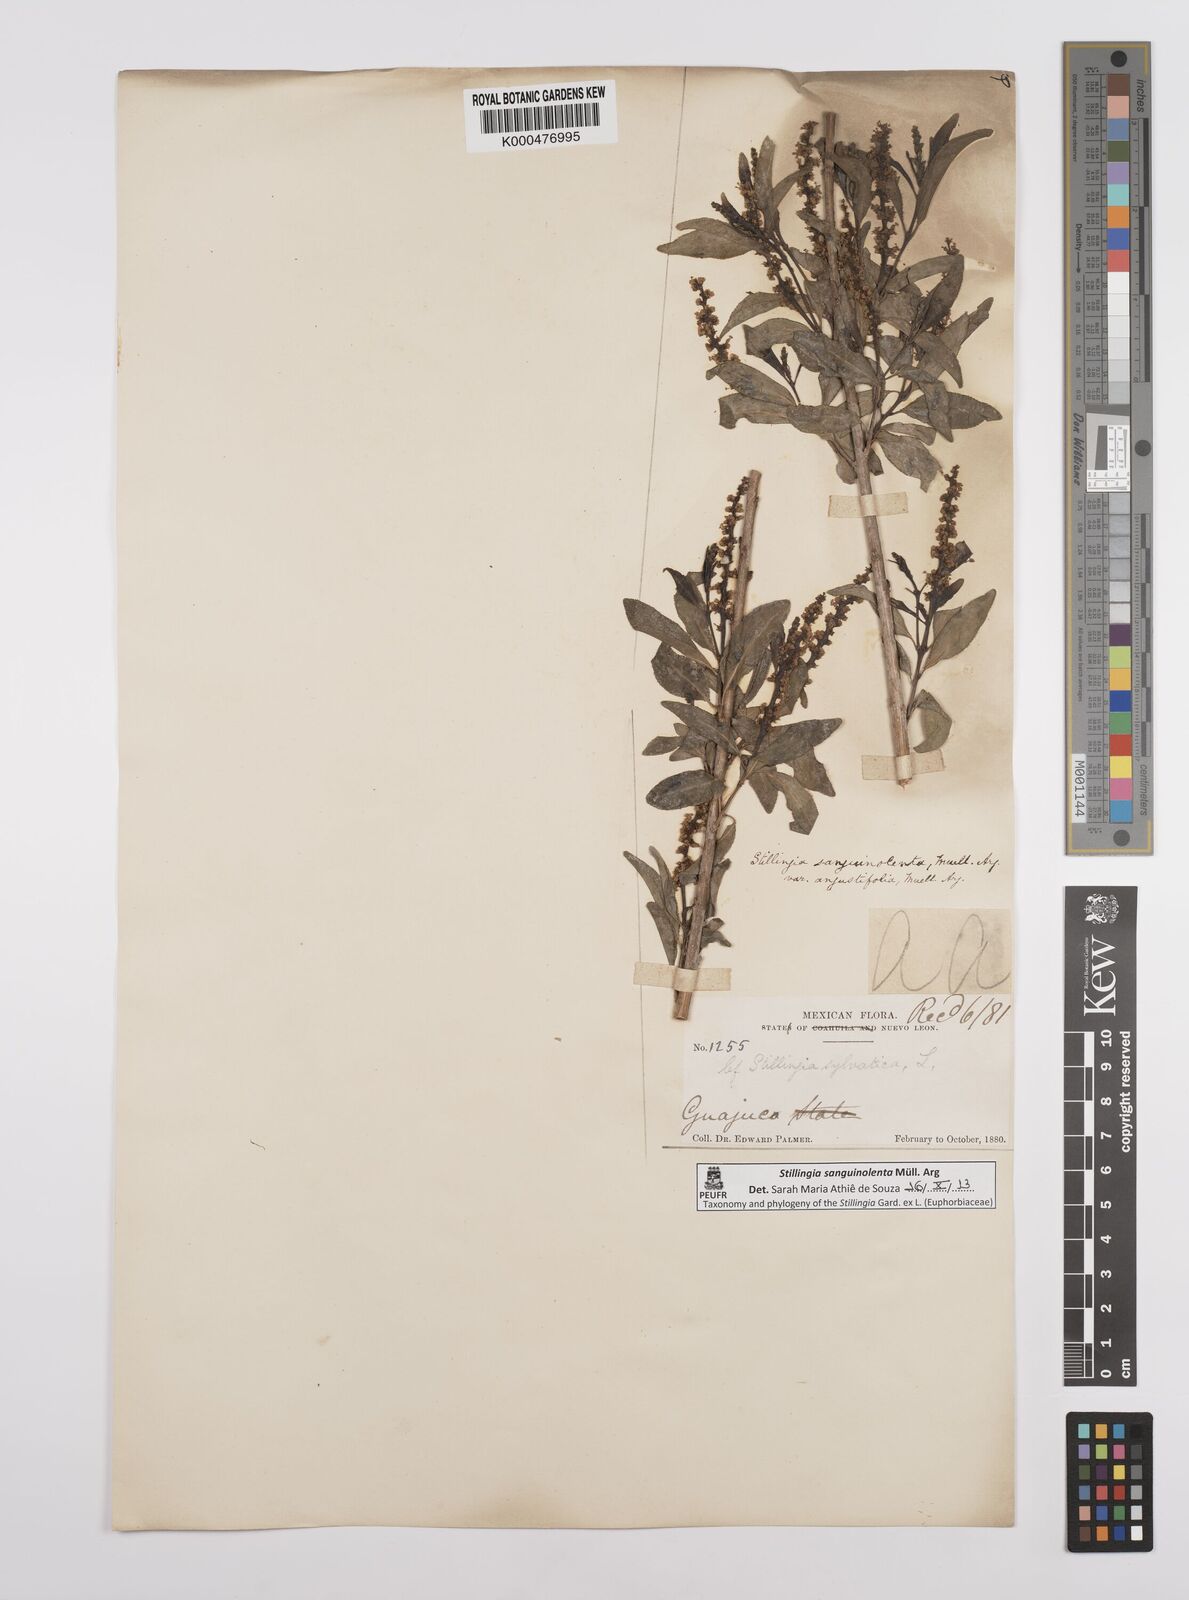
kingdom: Plantae
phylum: Tracheophyta
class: Magnoliopsida
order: Malpighiales
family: Euphorbiaceae
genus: Stillingia
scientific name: Stillingia
